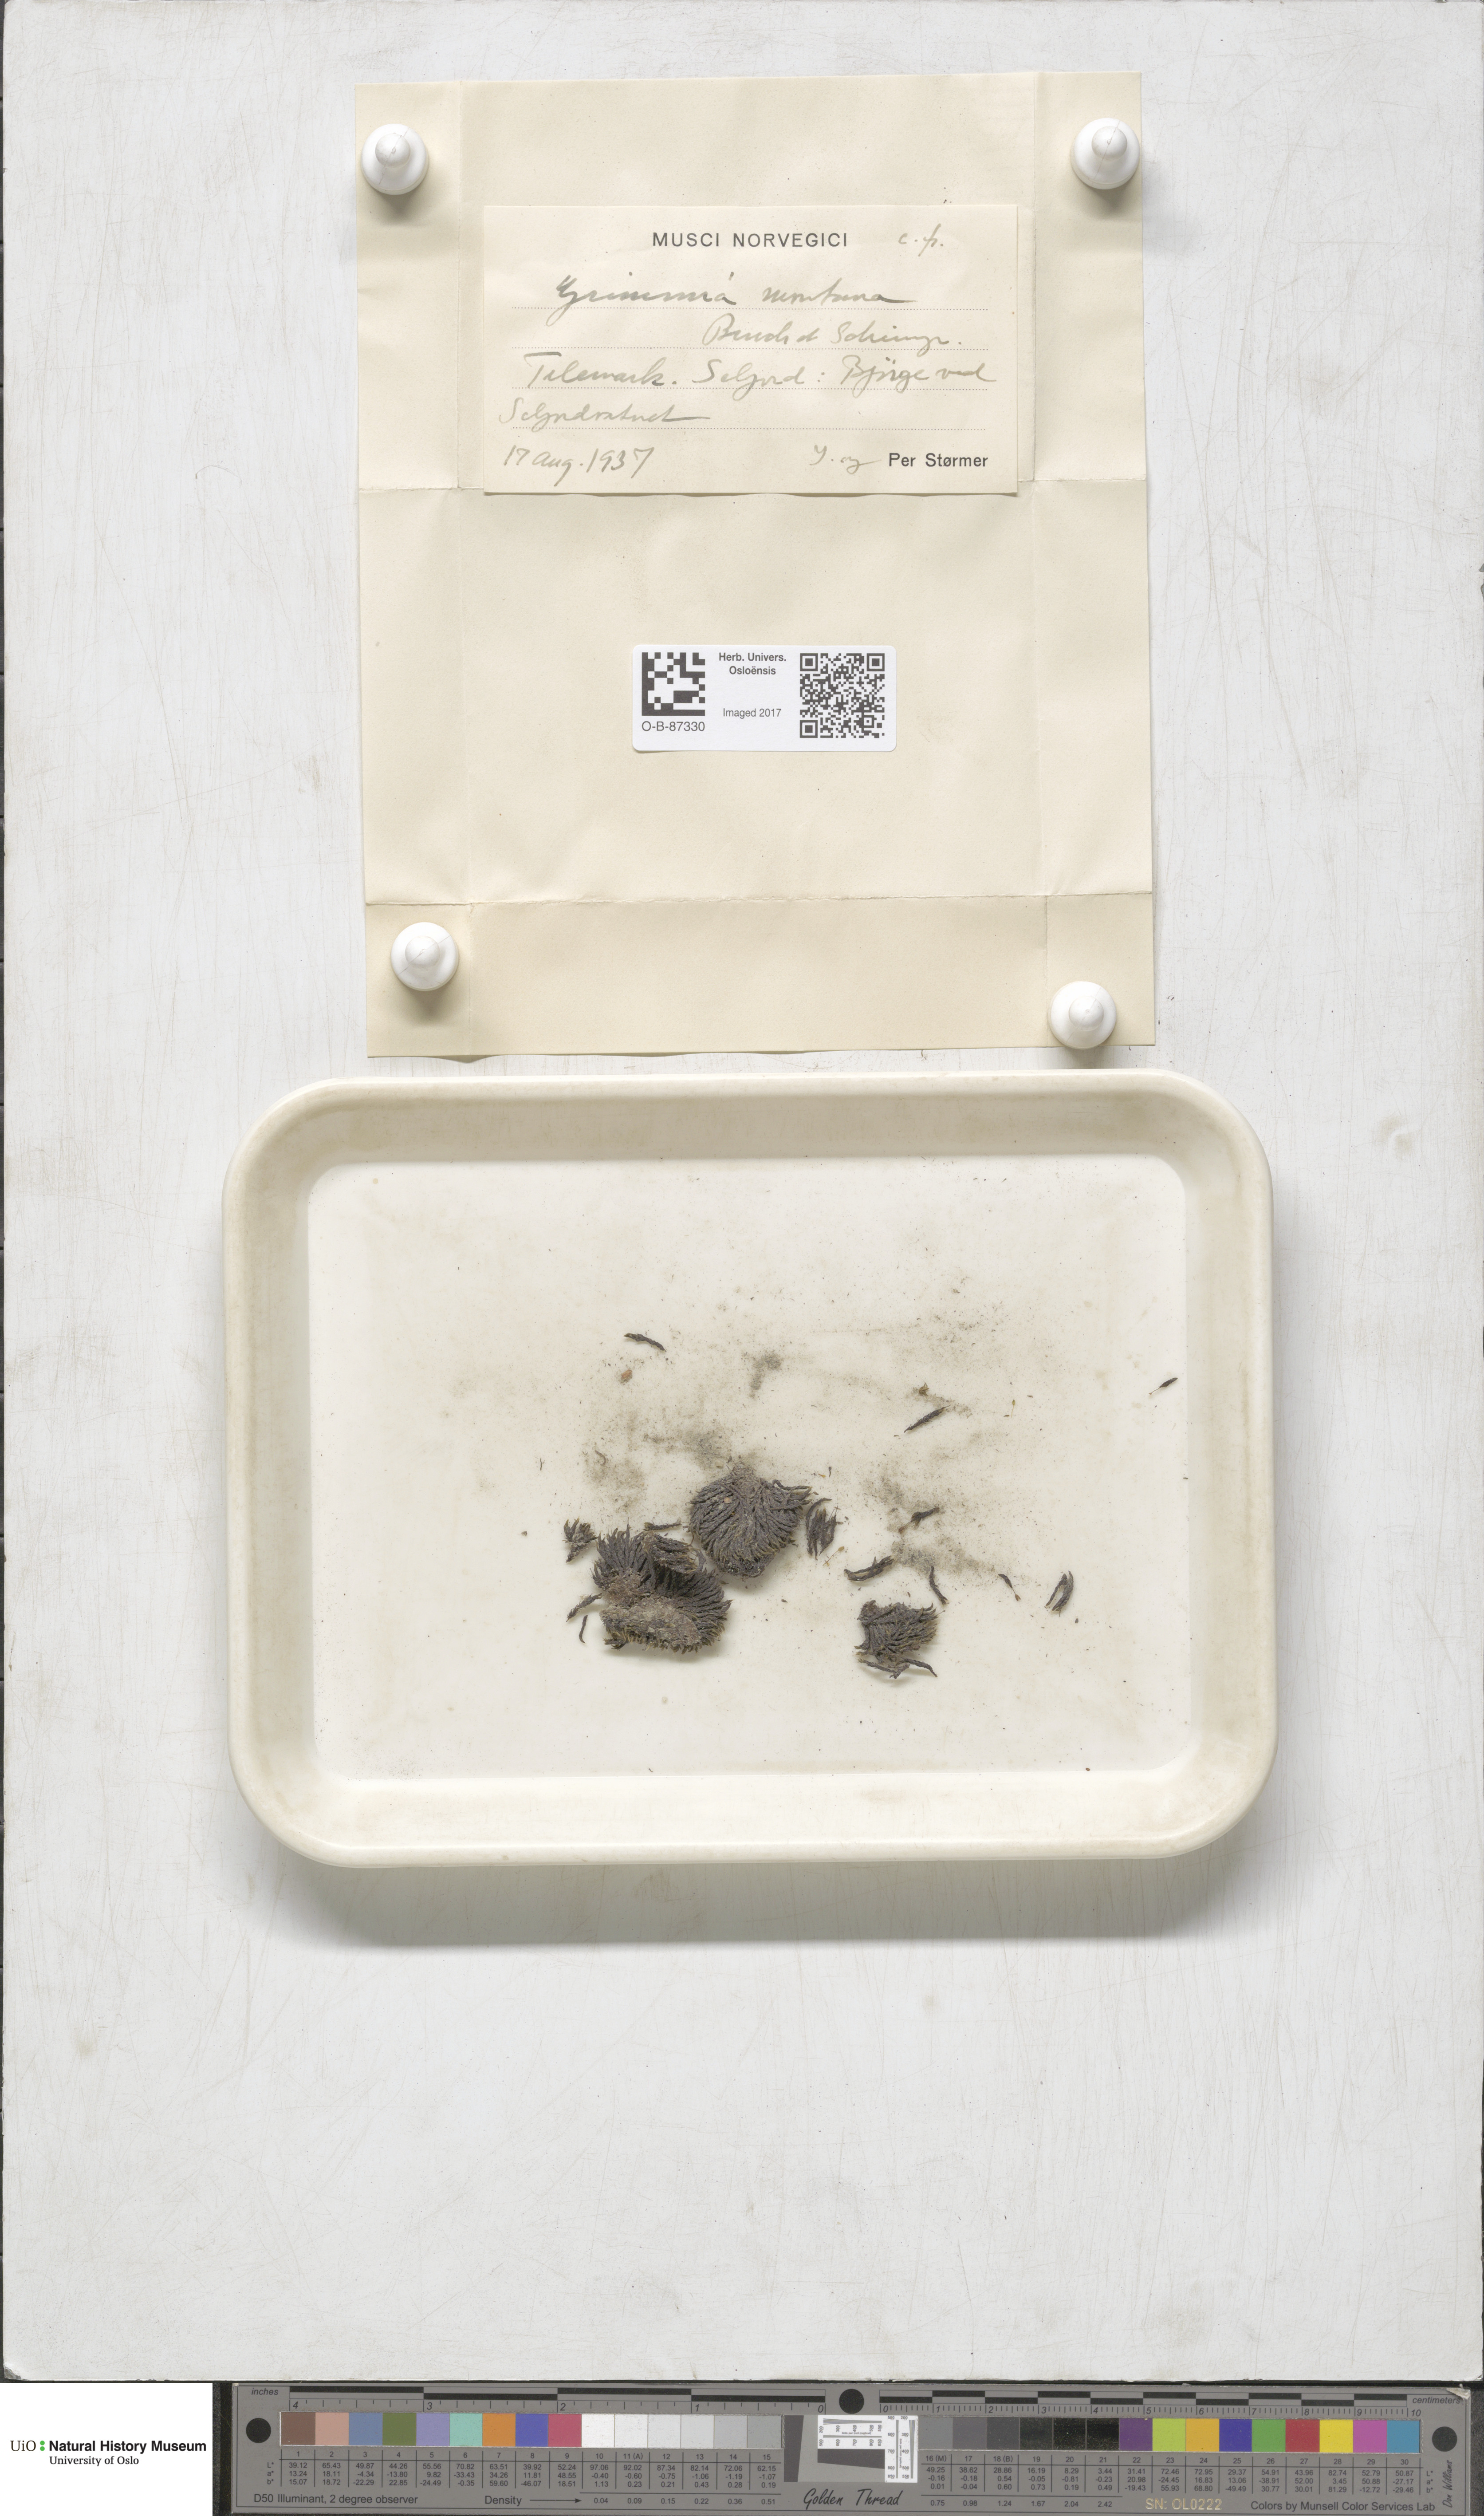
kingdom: Plantae
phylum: Bryophyta
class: Bryopsida
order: Grimmiales
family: Grimmiaceae
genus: Grimmia
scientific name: Grimmia montana
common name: Sun grimmia
